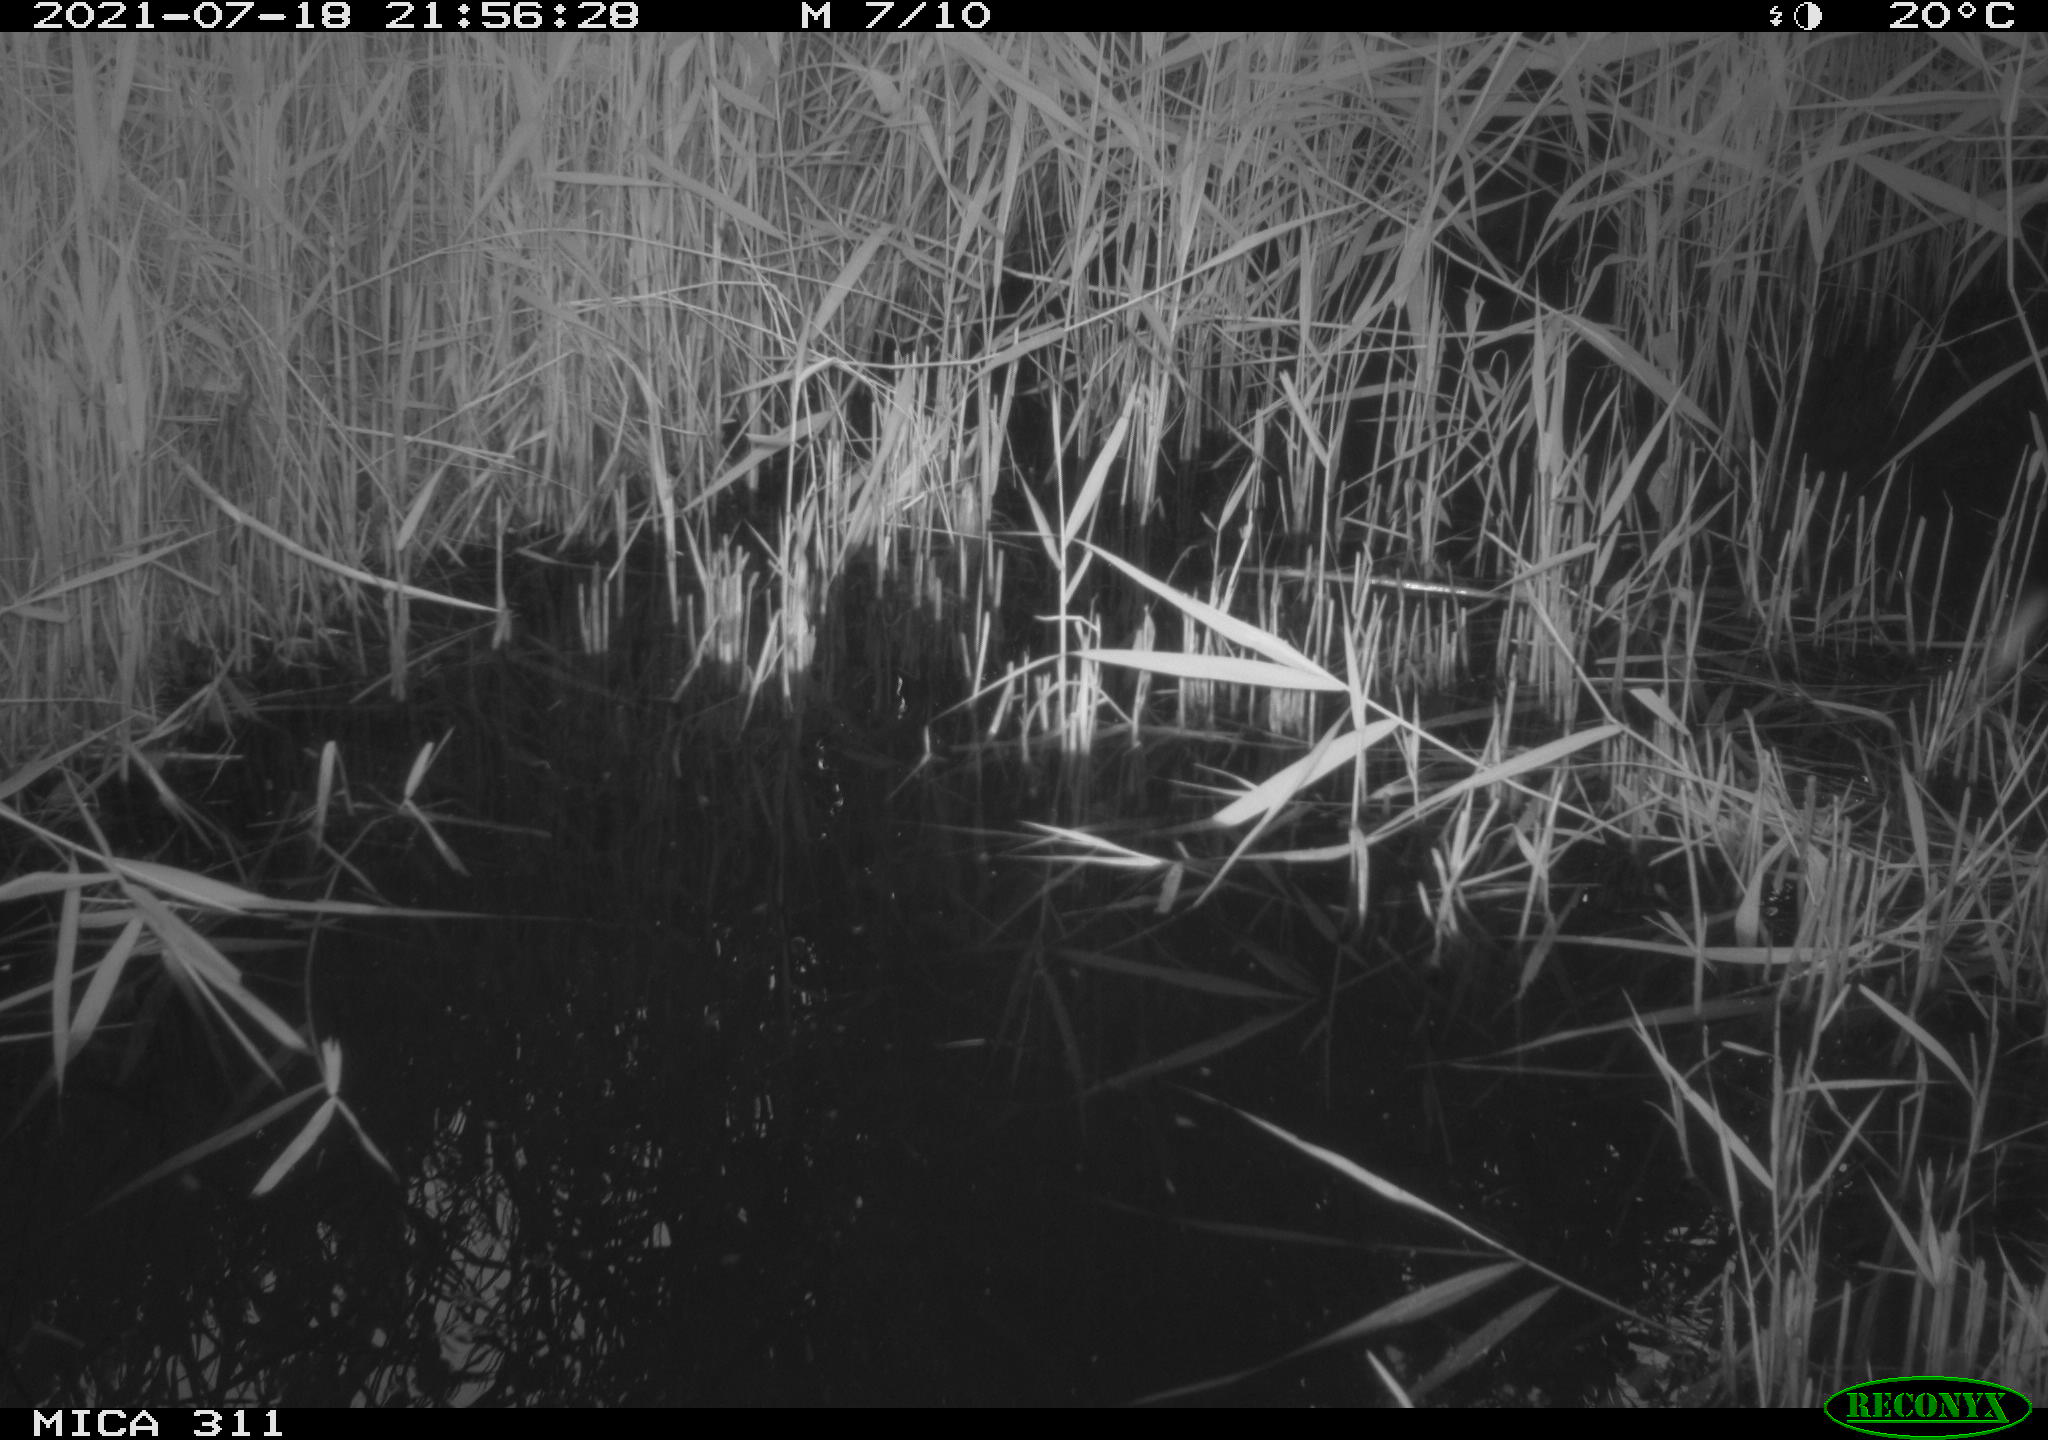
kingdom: Animalia
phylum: Chordata
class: Aves
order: Gruiformes
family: Rallidae
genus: Fulica
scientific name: Fulica atra
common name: Eurasian coot
